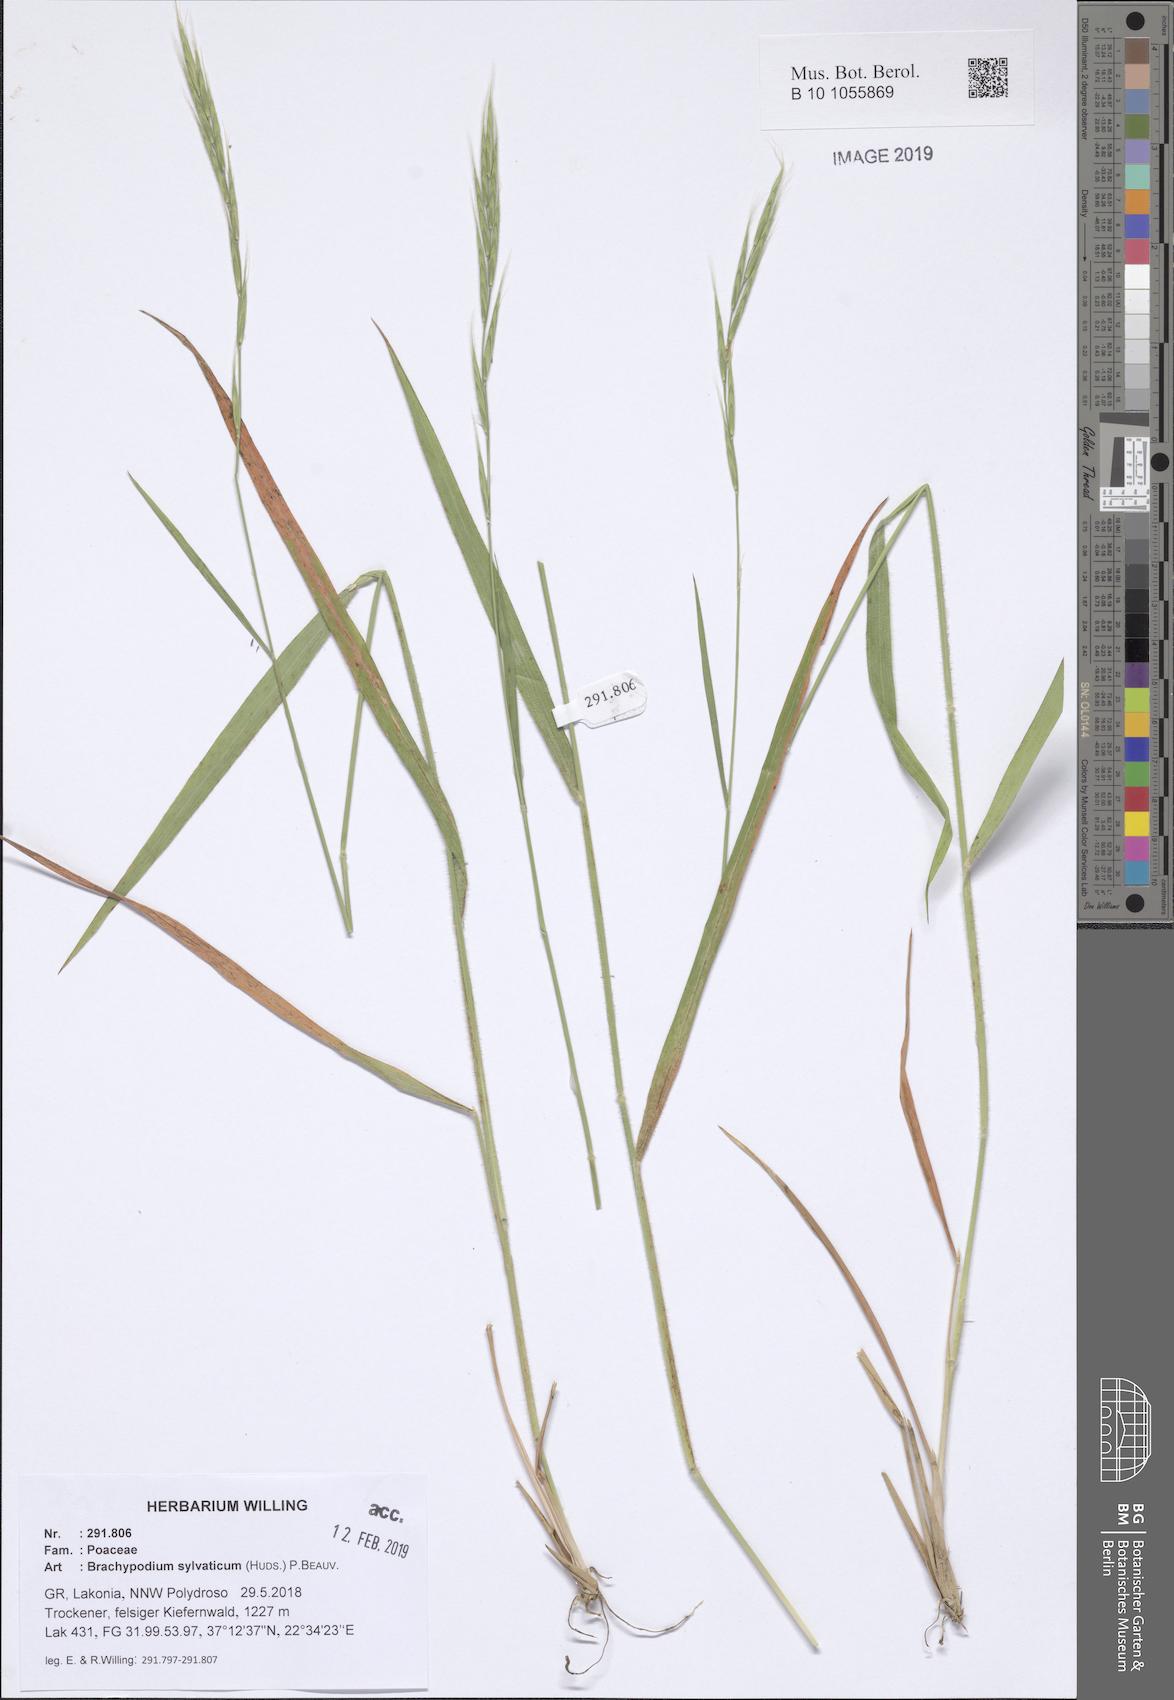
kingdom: Plantae
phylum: Tracheophyta
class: Liliopsida
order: Poales
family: Poaceae
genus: Brachypodium
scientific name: Brachypodium sylvaticum
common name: False-brome
